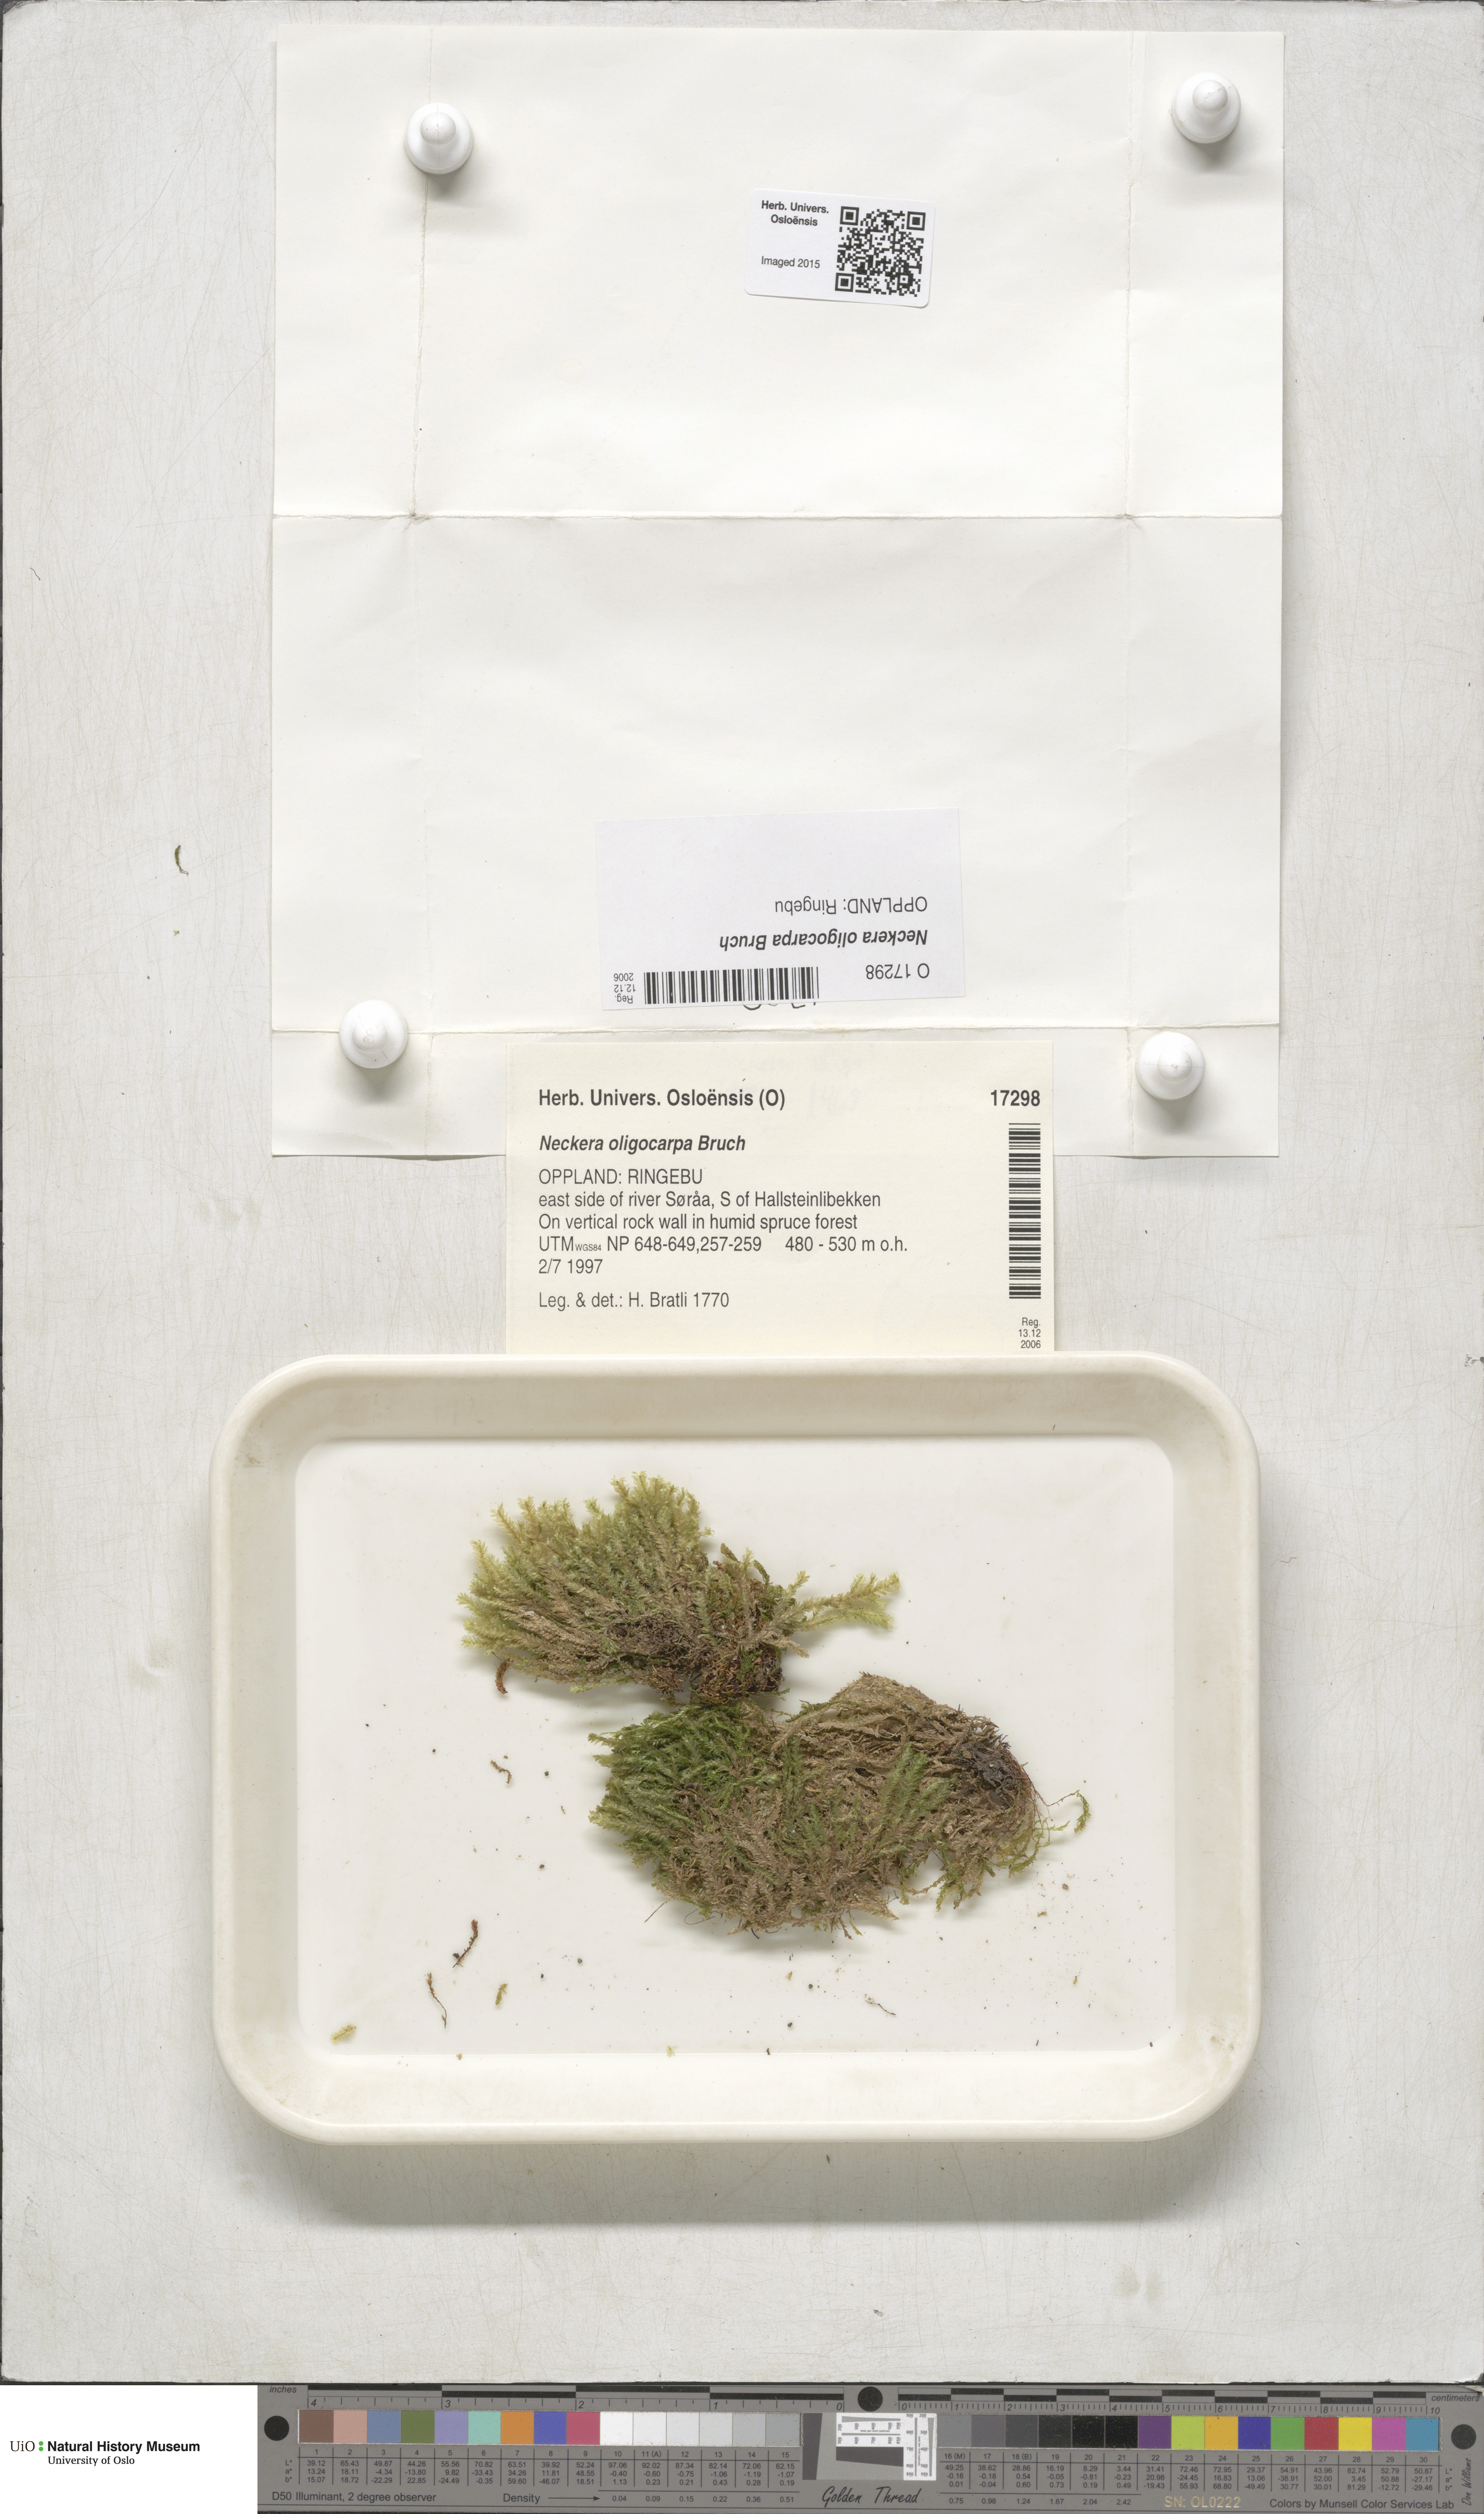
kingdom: Plantae
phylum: Bryophyta
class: Bryopsida
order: Hypnales
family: Neckeraceae
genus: Neckera
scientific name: Neckera oligocarpa
